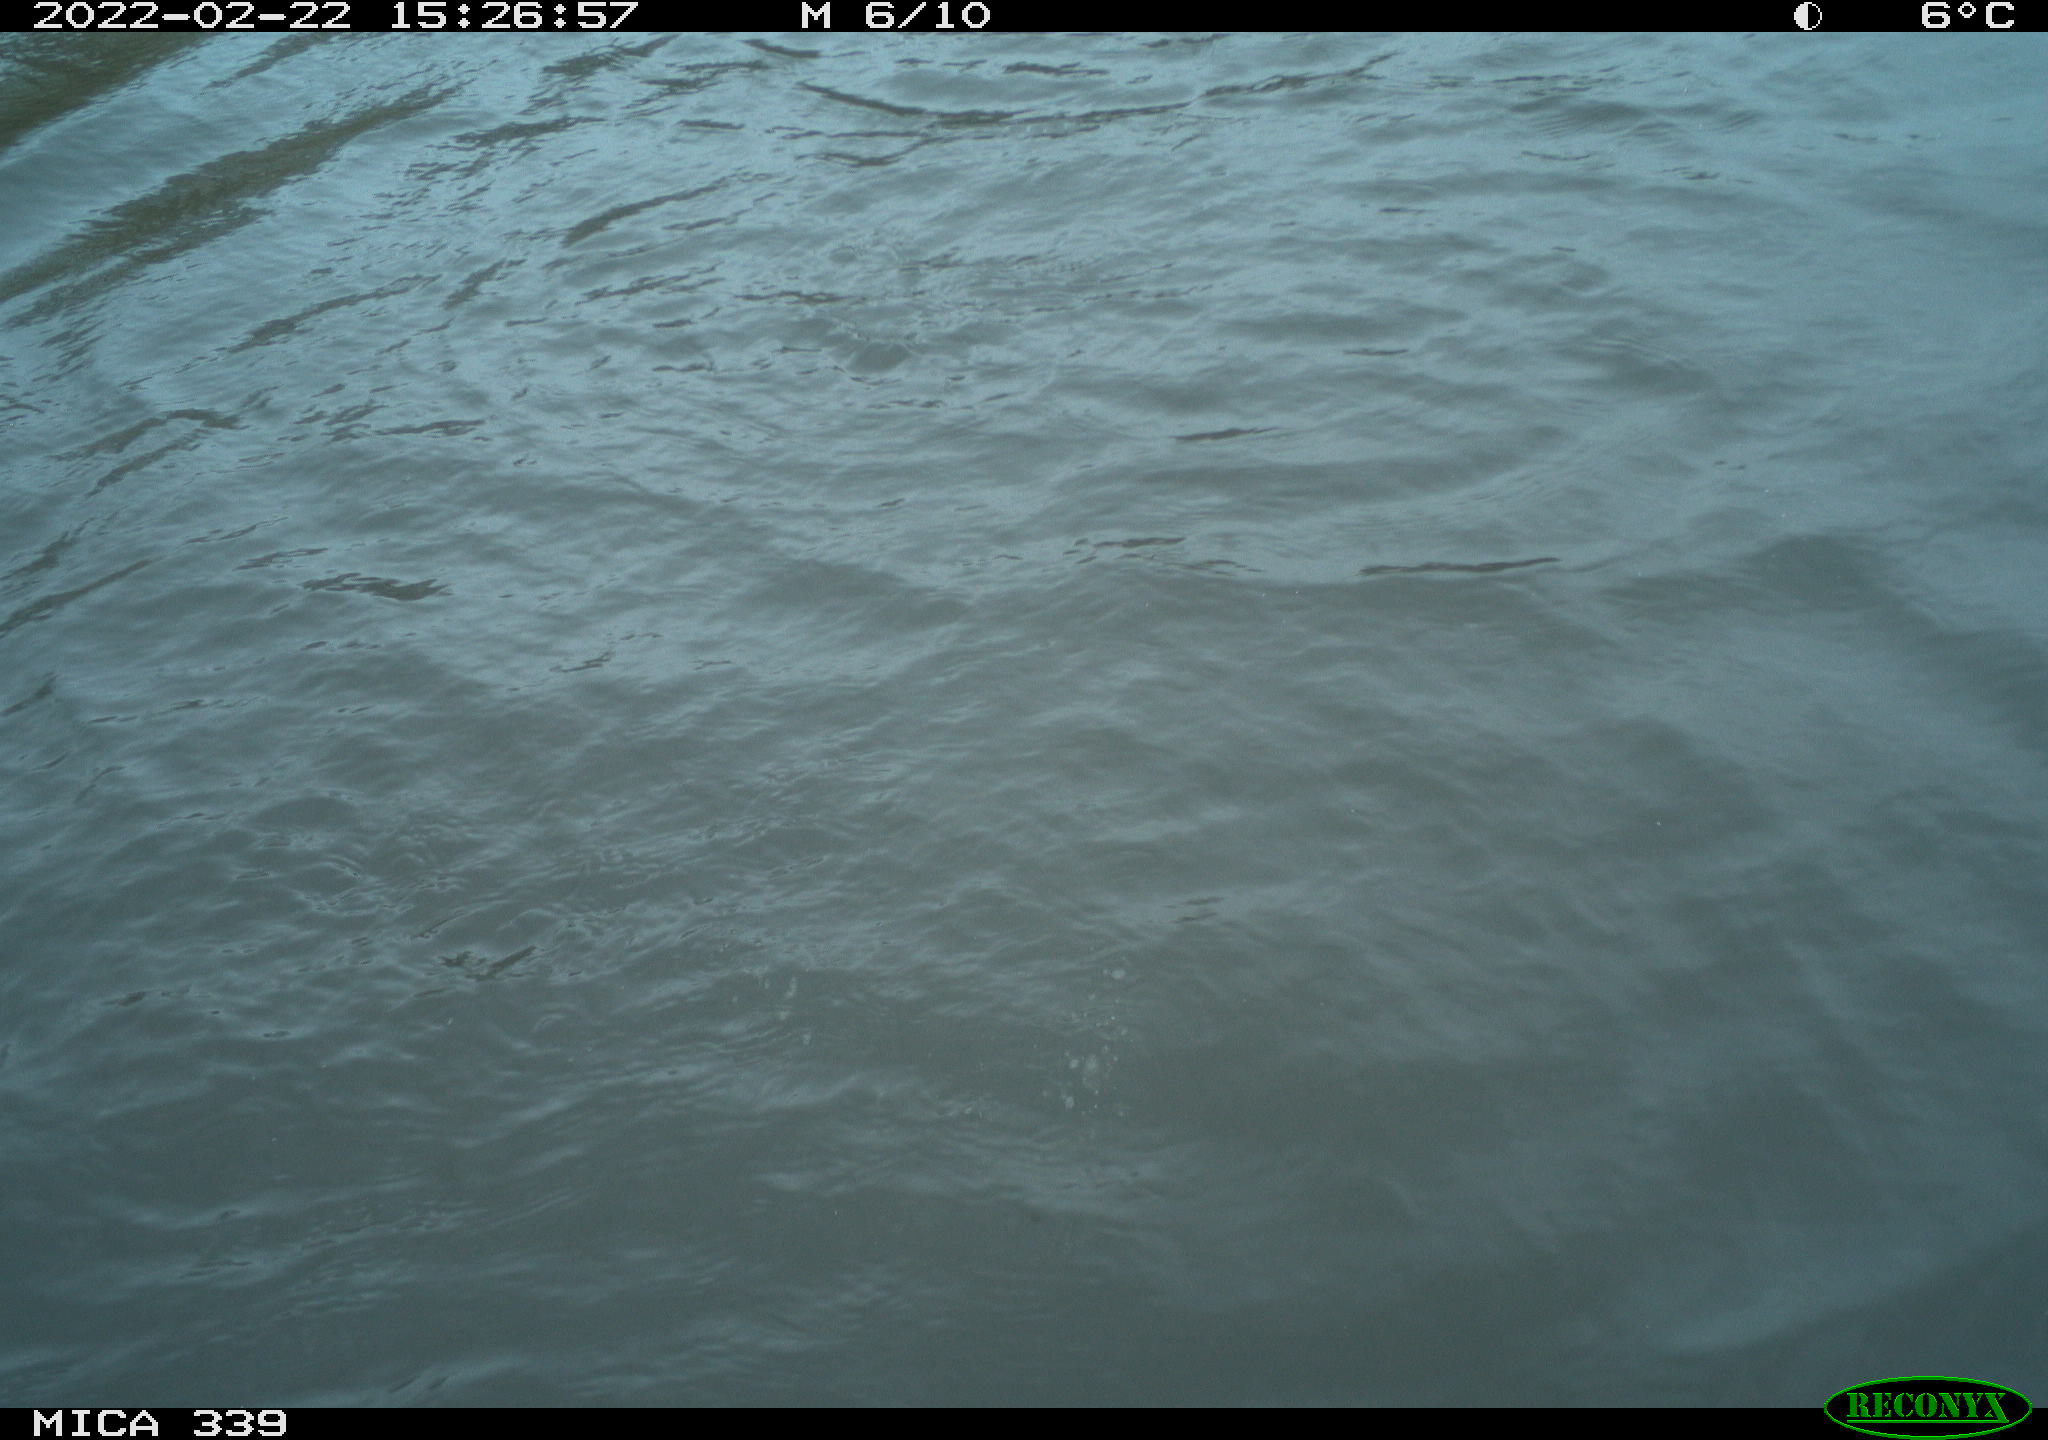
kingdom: Animalia
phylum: Chordata
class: Aves
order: Suliformes
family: Phalacrocoracidae
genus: Phalacrocorax
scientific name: Phalacrocorax carbo
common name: Great cormorant
